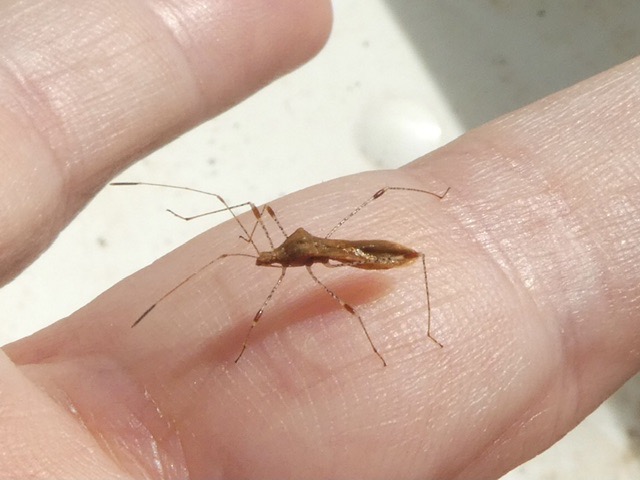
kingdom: Animalia
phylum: Arthropoda
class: Insecta
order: Hemiptera
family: Berytidae
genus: Metatropis
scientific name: Metatropis rufescens
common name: Steffensurttæge
